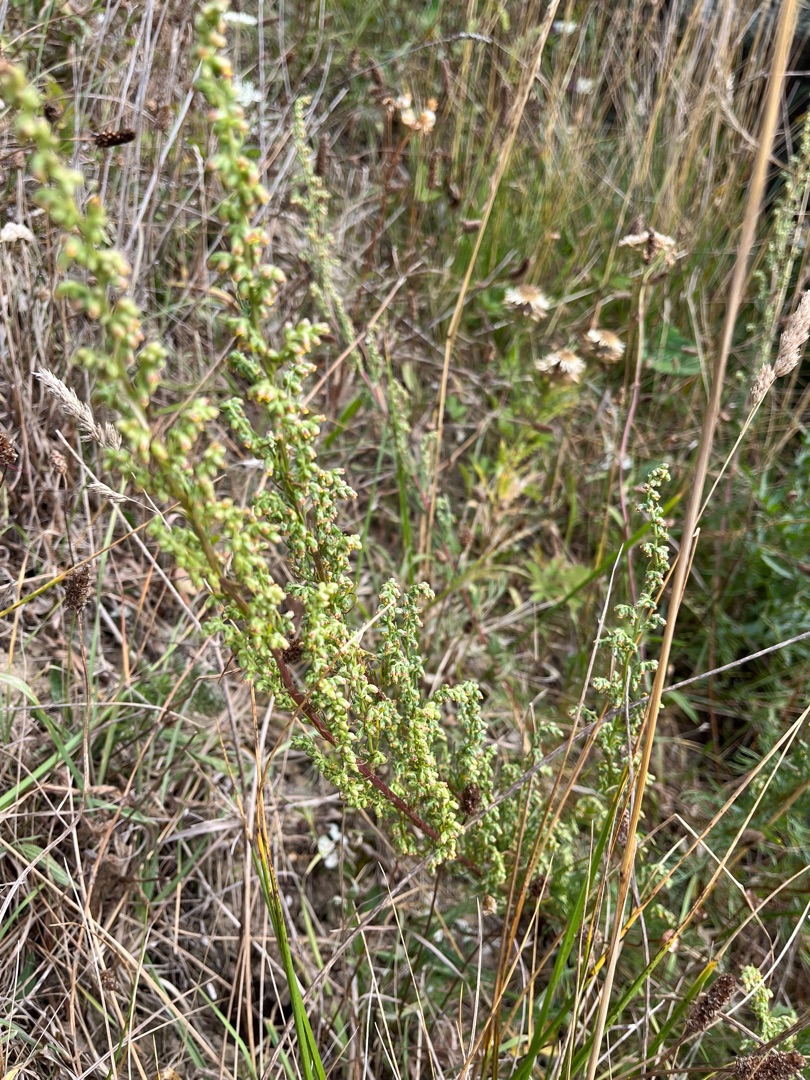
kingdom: Plantae
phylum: Tracheophyta
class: Magnoliopsida
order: Asterales
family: Asteraceae
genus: Artemisia
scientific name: Artemisia campestris
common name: Mark-bynke
